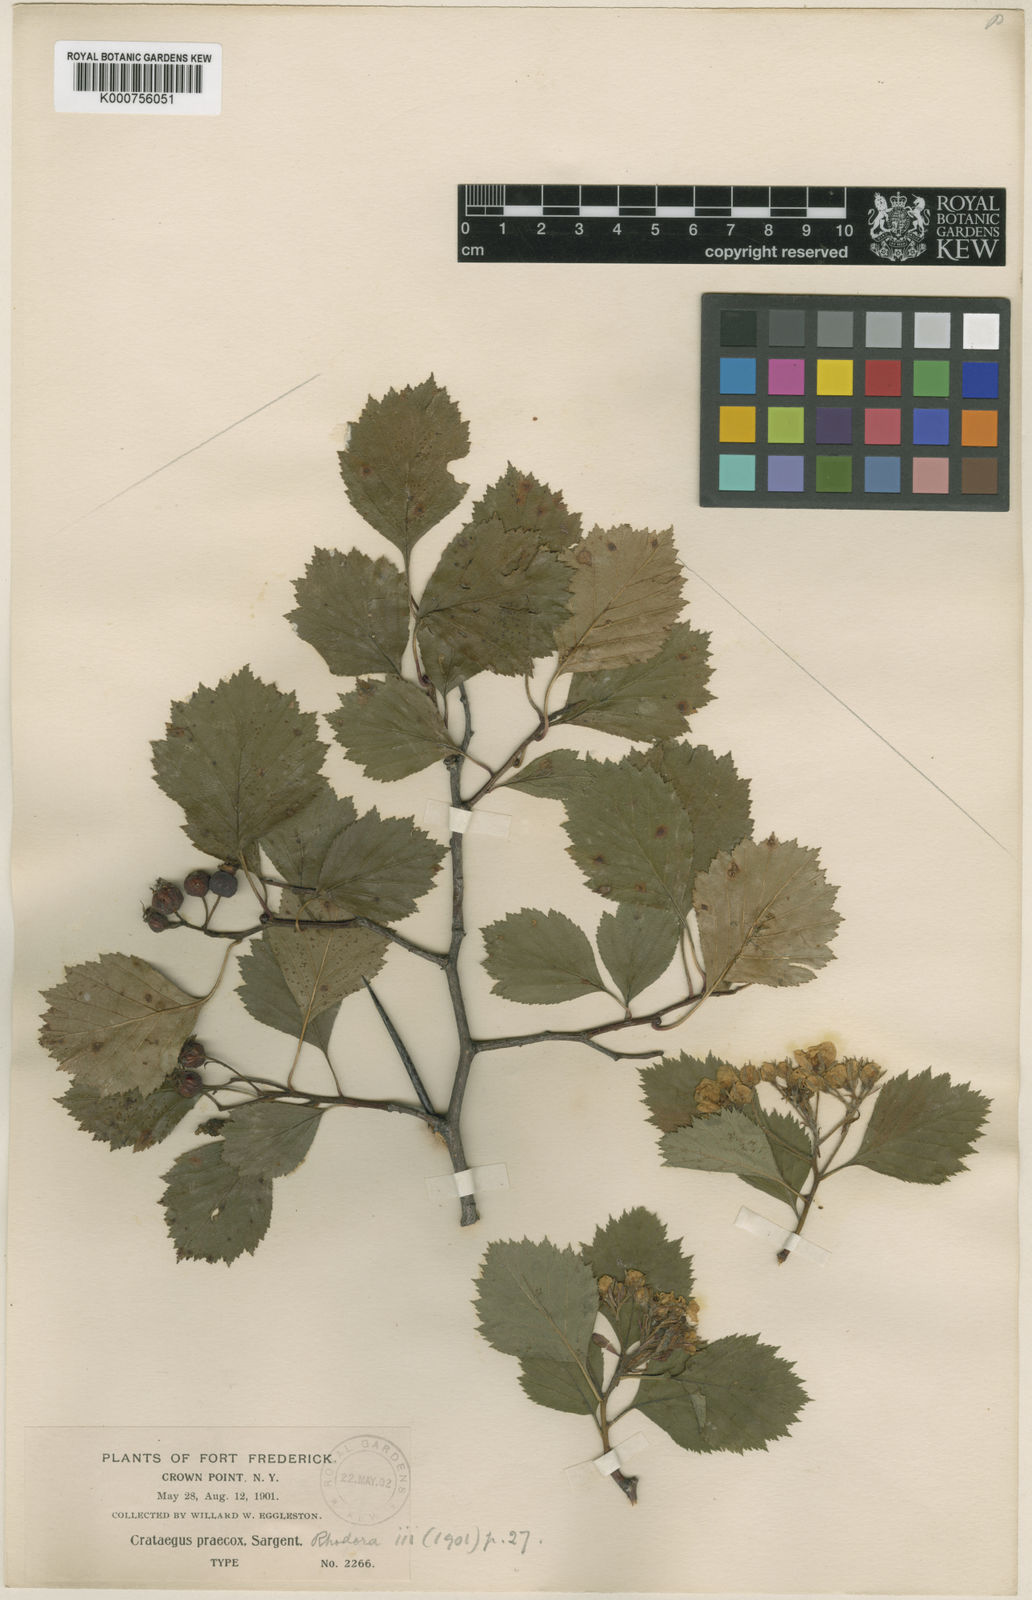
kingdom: Plantae
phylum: Tracheophyta
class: Magnoliopsida
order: Rosales
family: Rosaceae
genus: Crataegus
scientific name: Crataegus chrysocarpa
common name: Fire-berry hawthorn
